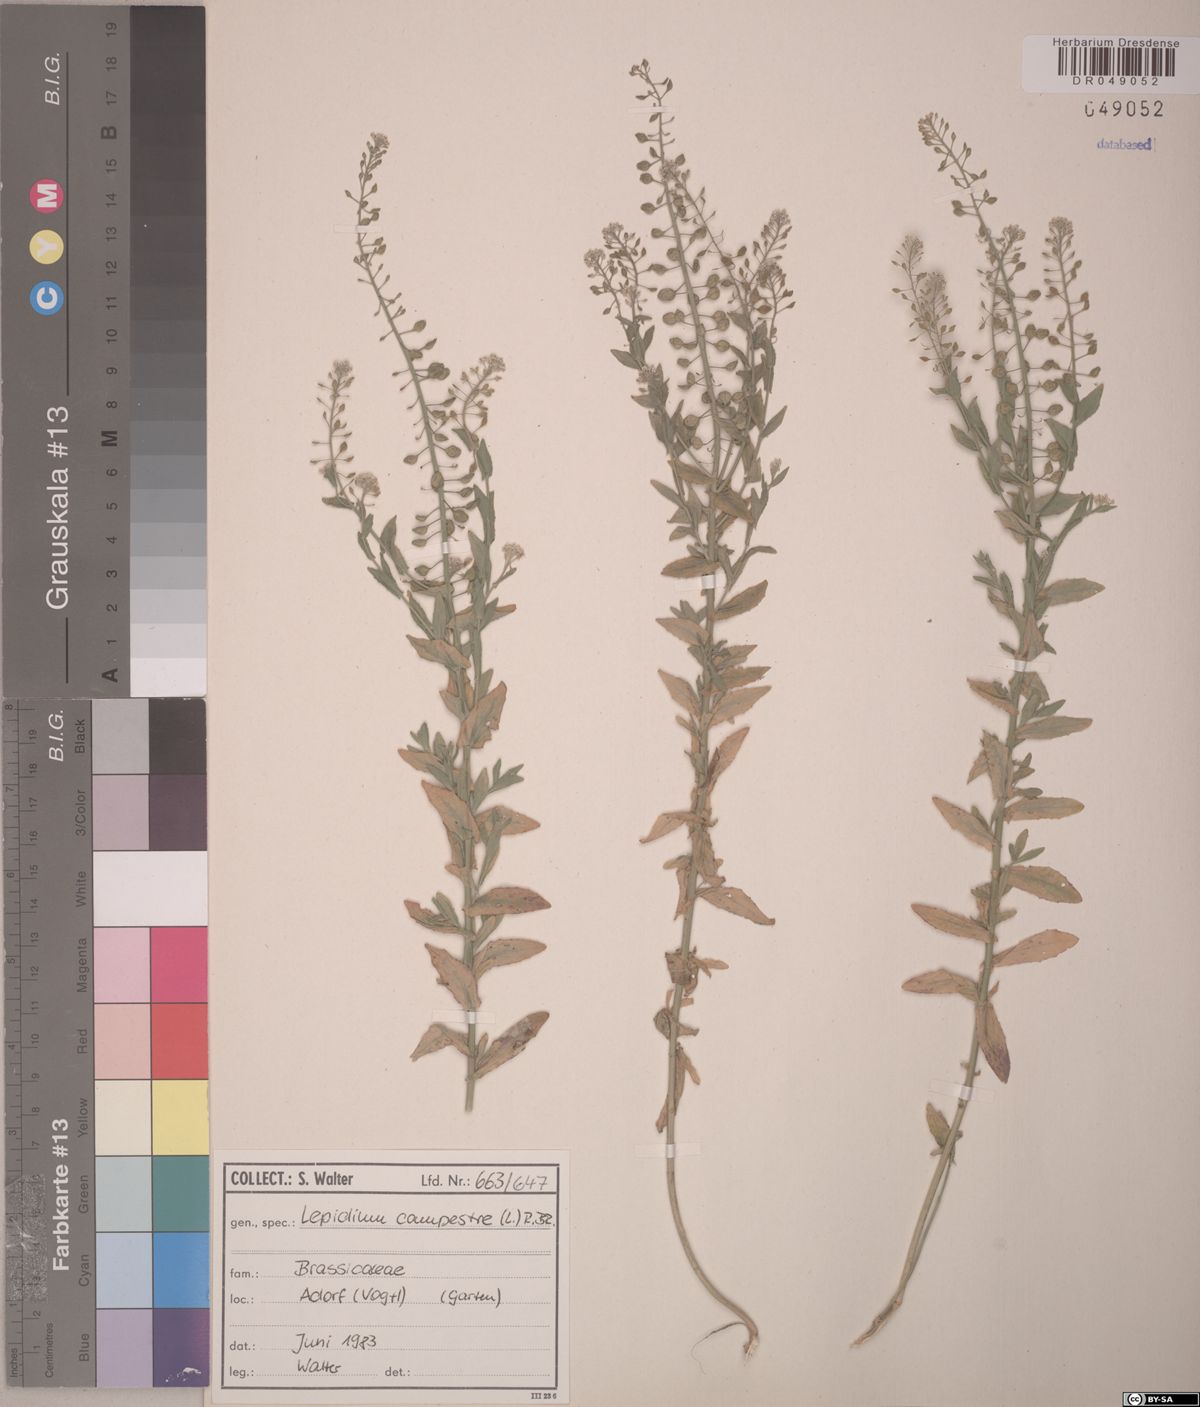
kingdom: Plantae
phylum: Tracheophyta
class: Magnoliopsida
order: Brassicales
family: Brassicaceae
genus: Lepidium
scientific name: Lepidium campestre
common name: Field pepperwort
